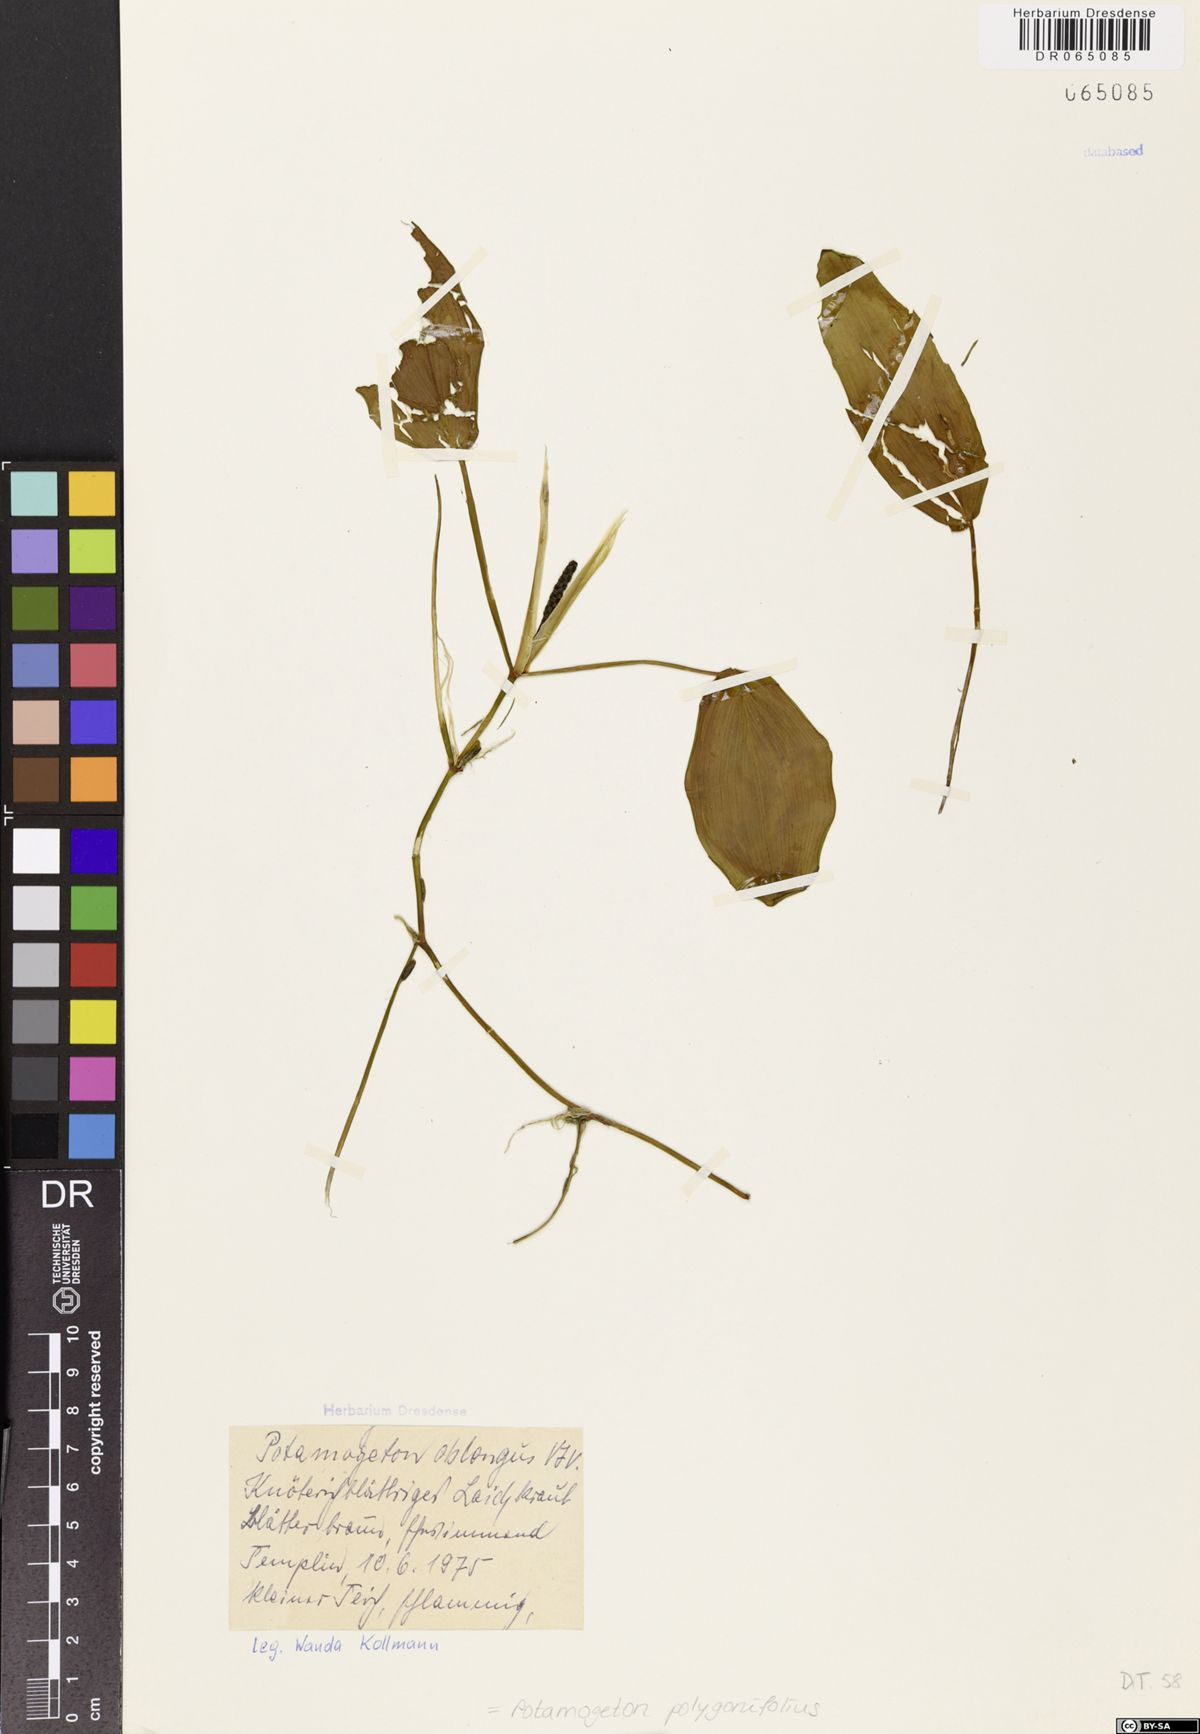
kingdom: Plantae
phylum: Tracheophyta
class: Liliopsida
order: Alismatales
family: Potamogetonaceae
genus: Potamogeton
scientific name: Potamogeton polygonifolius
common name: Bog pondweed
